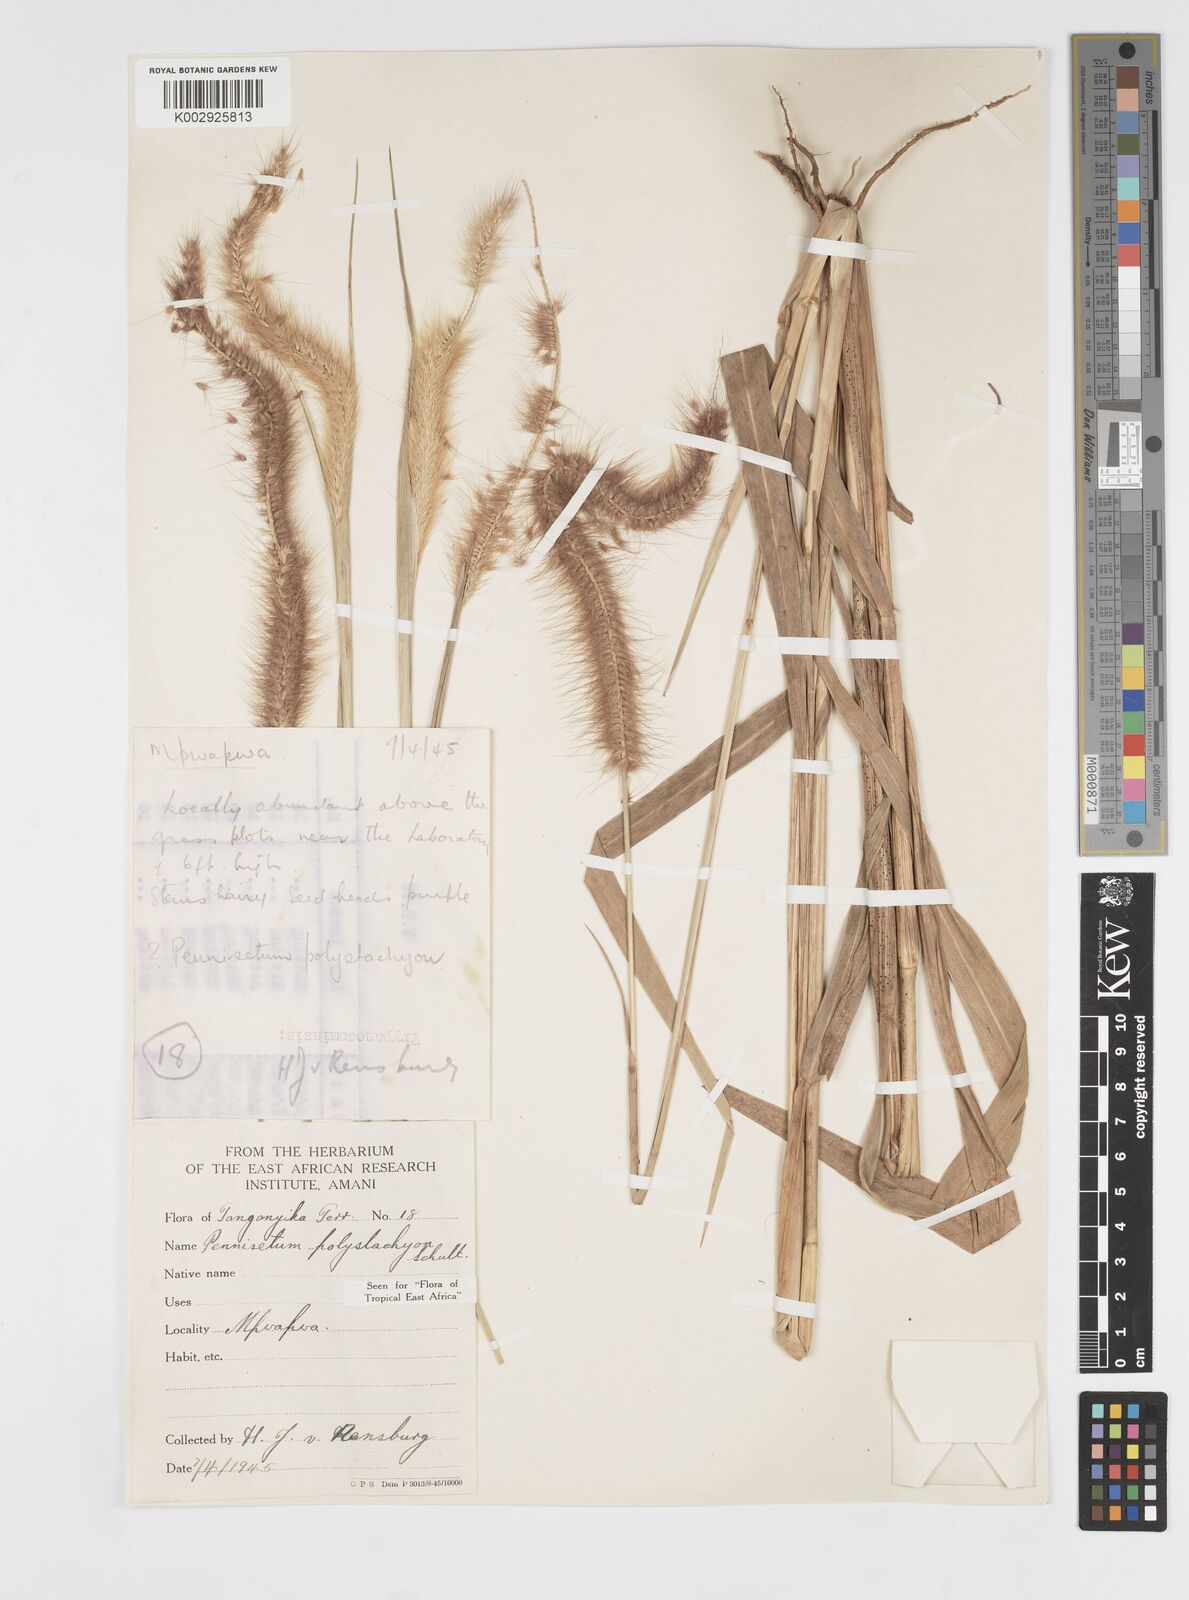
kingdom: Plantae
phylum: Tracheophyta
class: Liliopsida
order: Poales
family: Poaceae
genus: Setaria
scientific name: Setaria parviflora
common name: Knotroot bristle-grass
